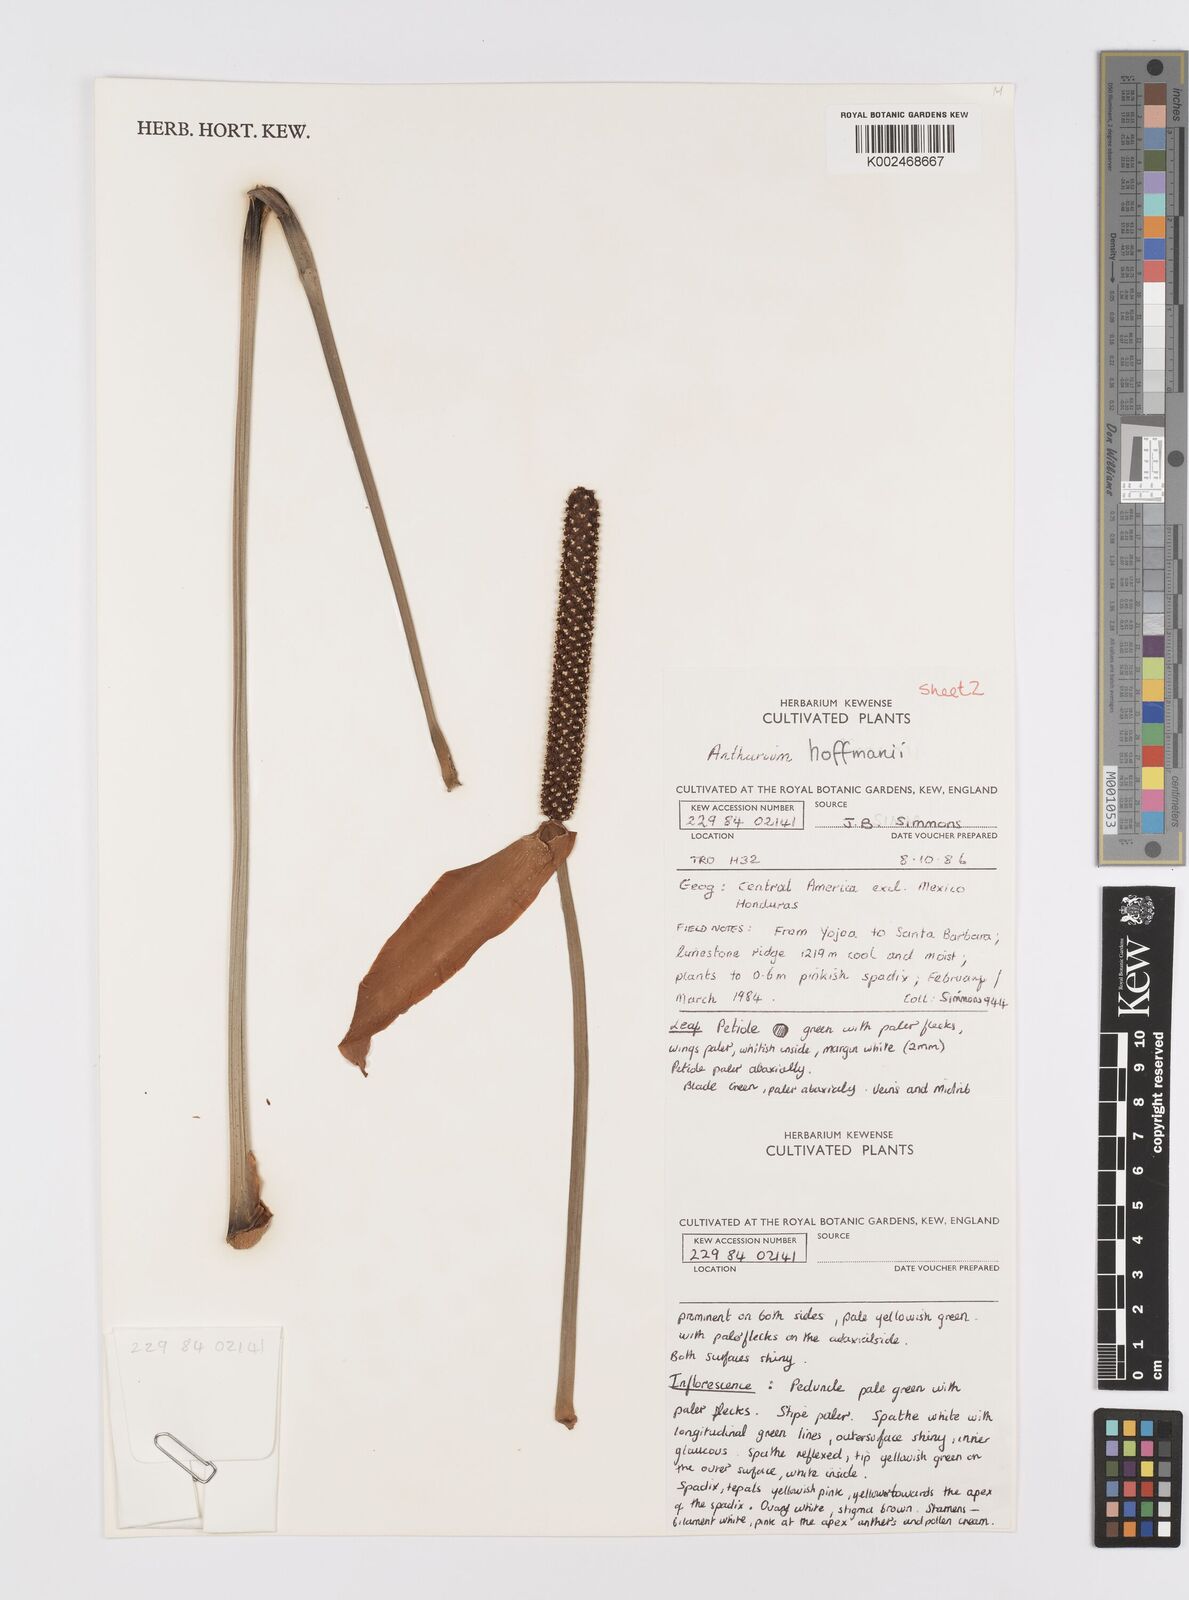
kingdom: Plantae
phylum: Tracheophyta
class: Liliopsida
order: Alismatales
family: Araceae
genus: Anthurium
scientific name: Anthurium hoffmannii
